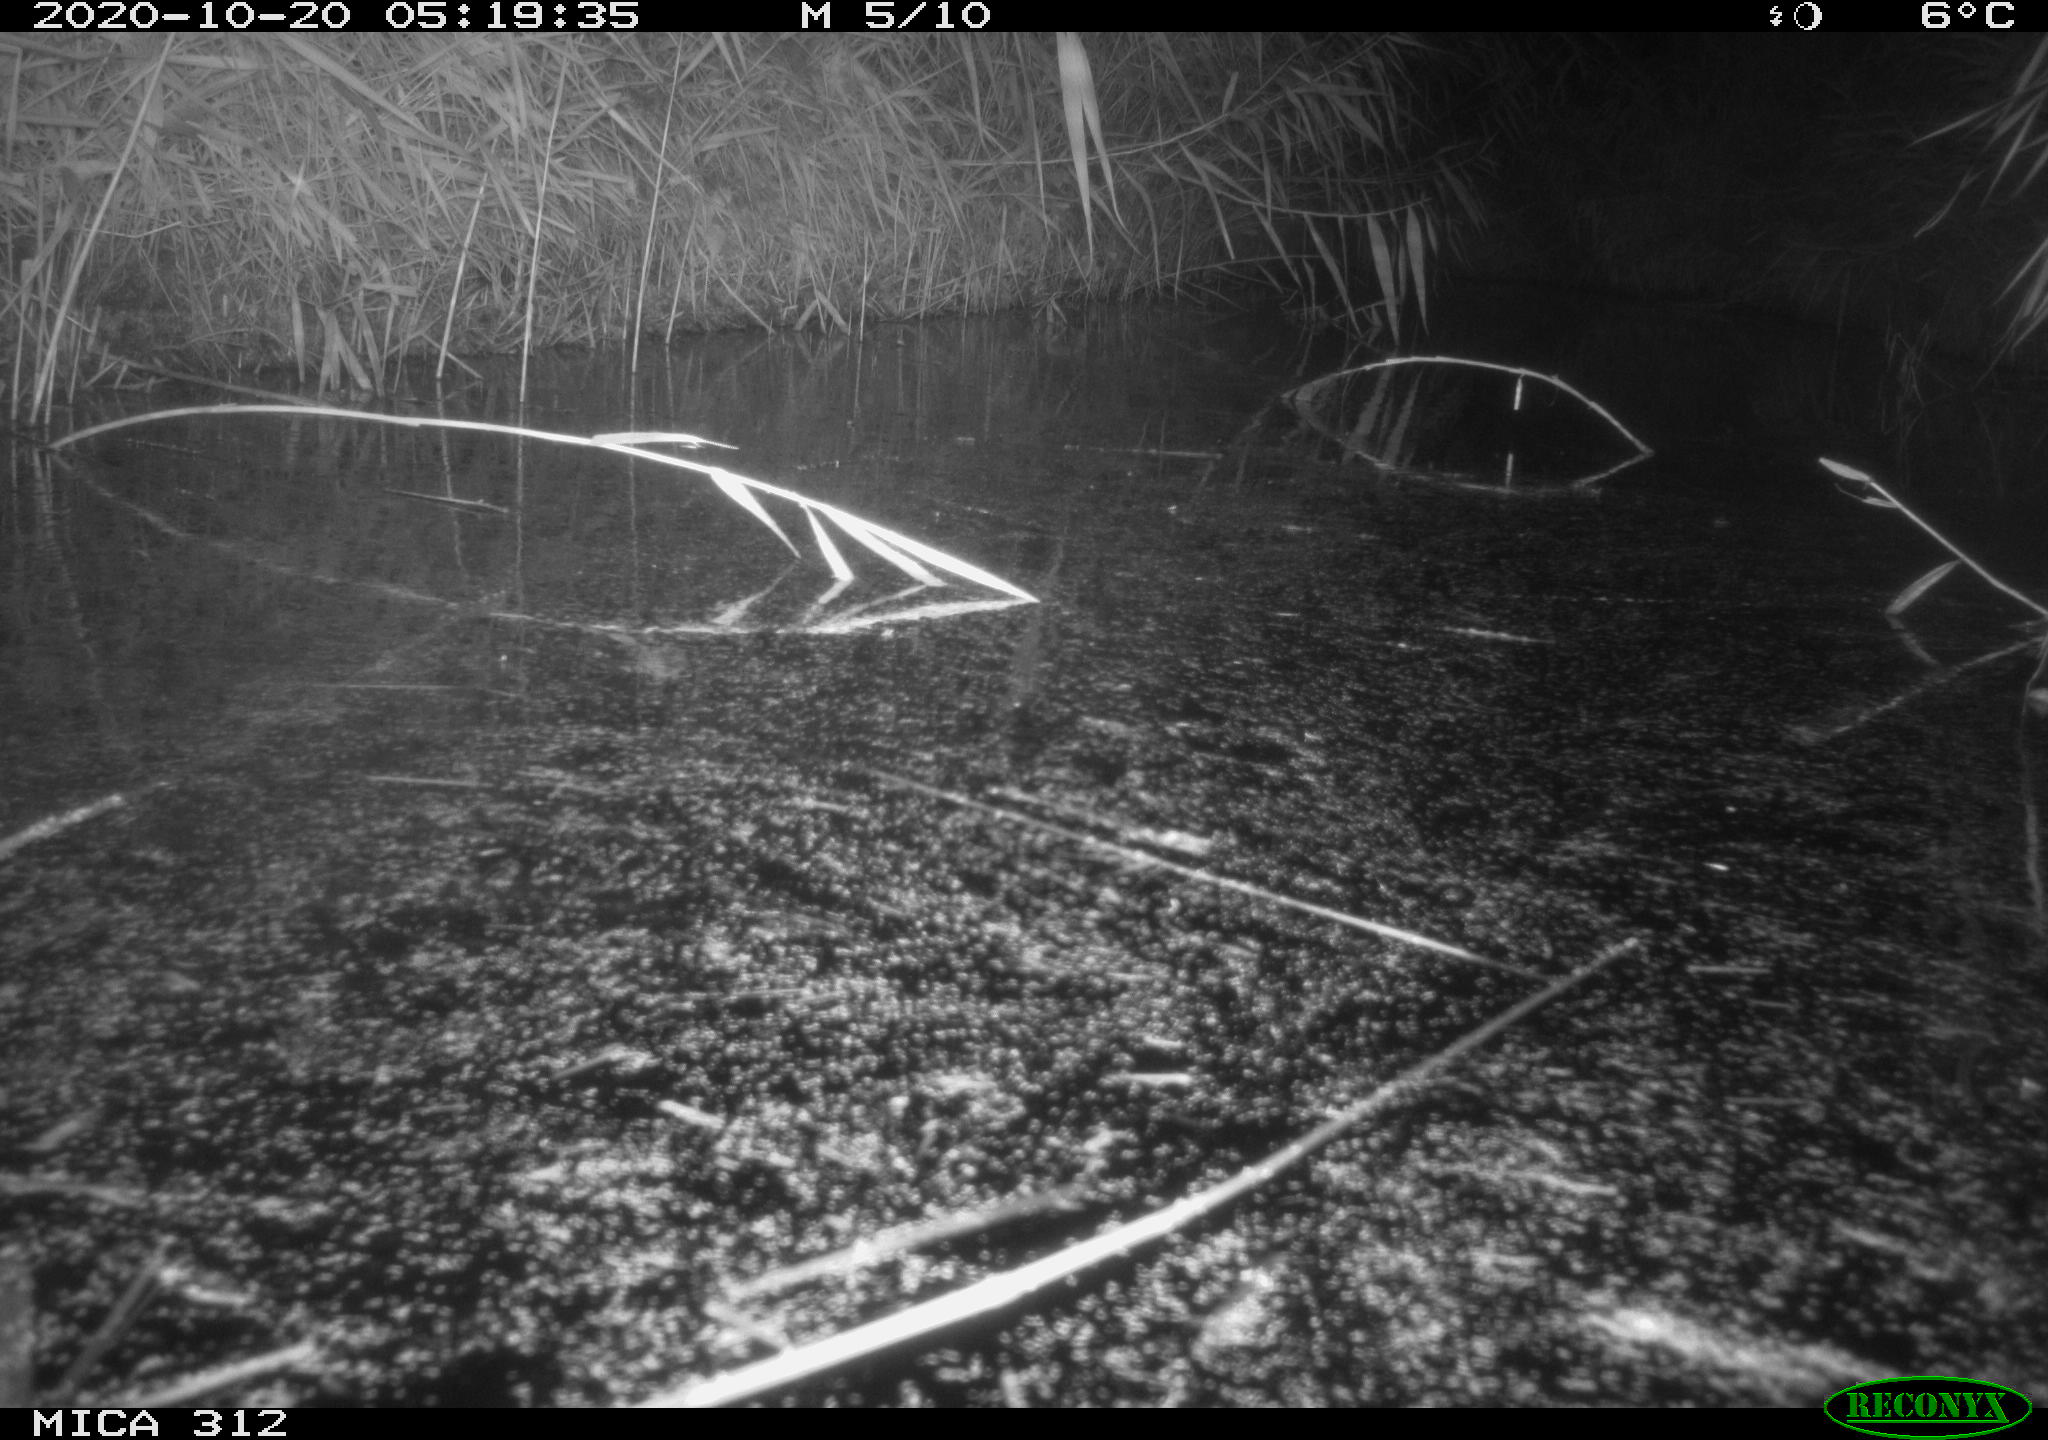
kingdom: Animalia
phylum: Chordata
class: Mammalia
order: Rodentia
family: Muridae
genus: Rattus
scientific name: Rattus norvegicus
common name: Brown rat
